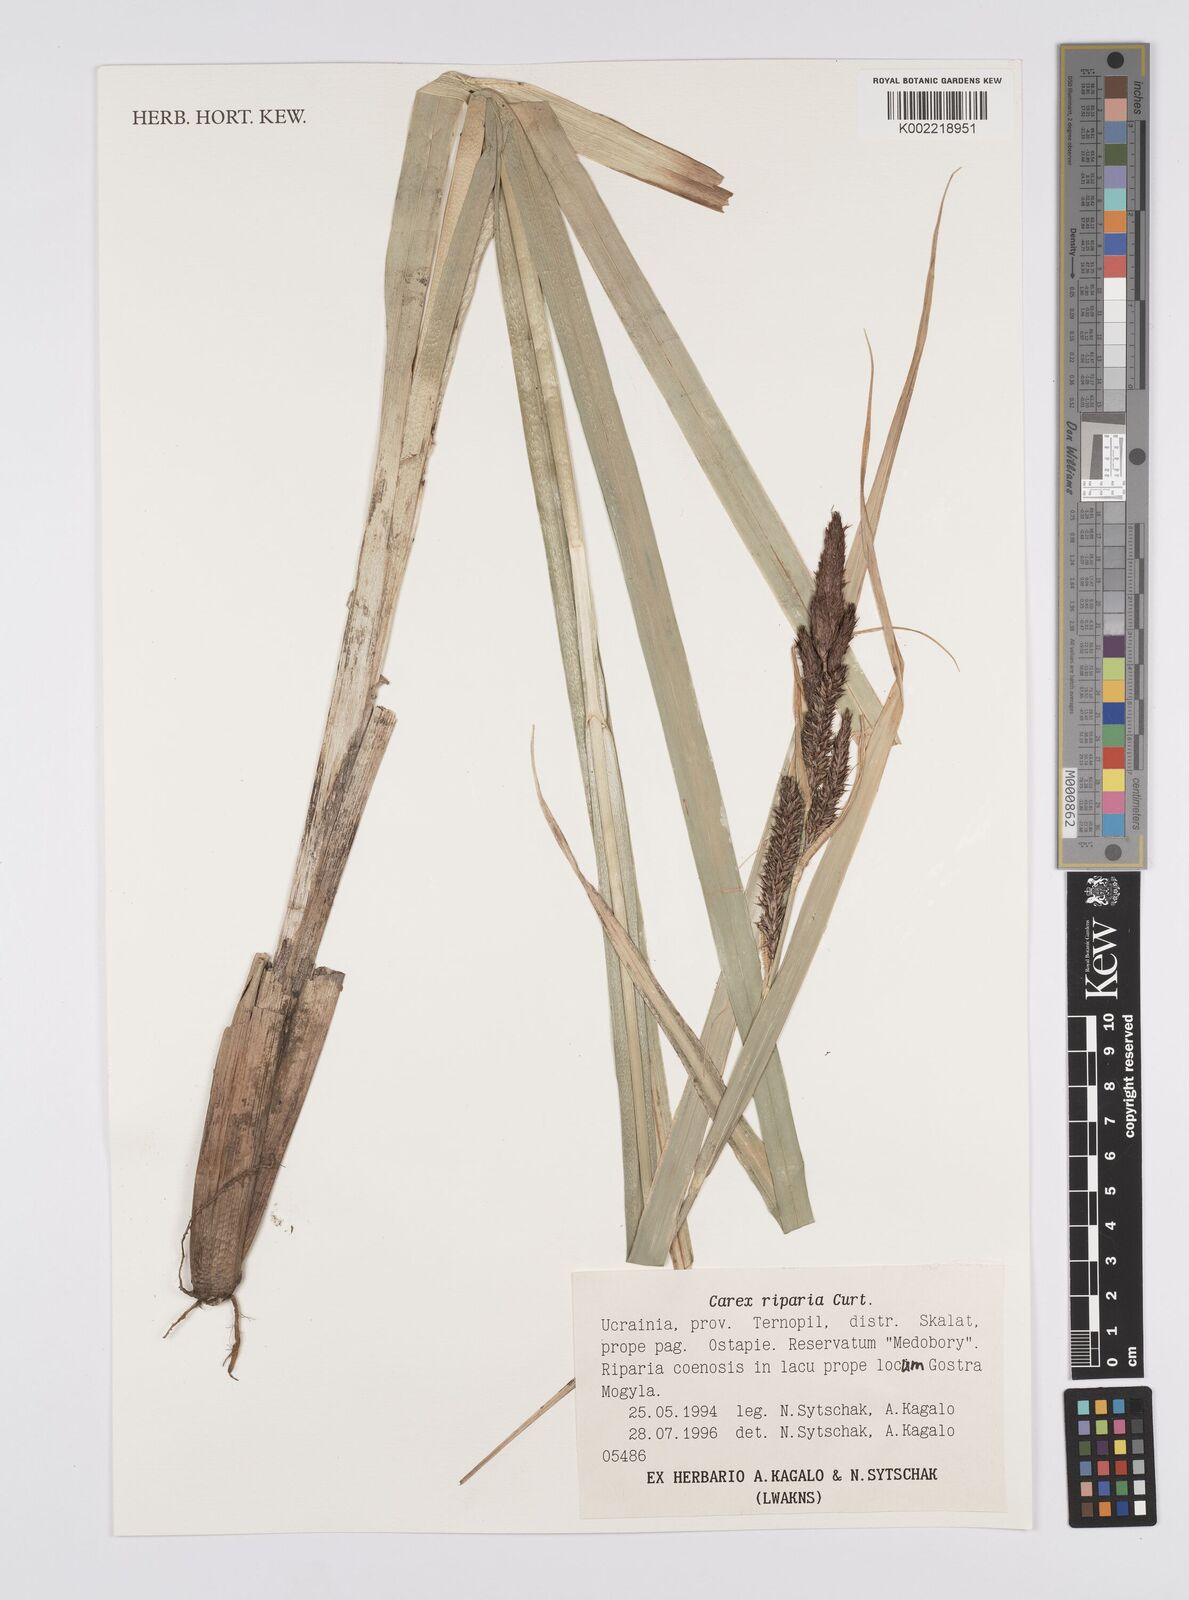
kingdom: Plantae
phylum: Tracheophyta
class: Liliopsida
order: Poales
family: Cyperaceae
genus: Carex
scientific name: Carex riparia
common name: Greater pond-sedge
